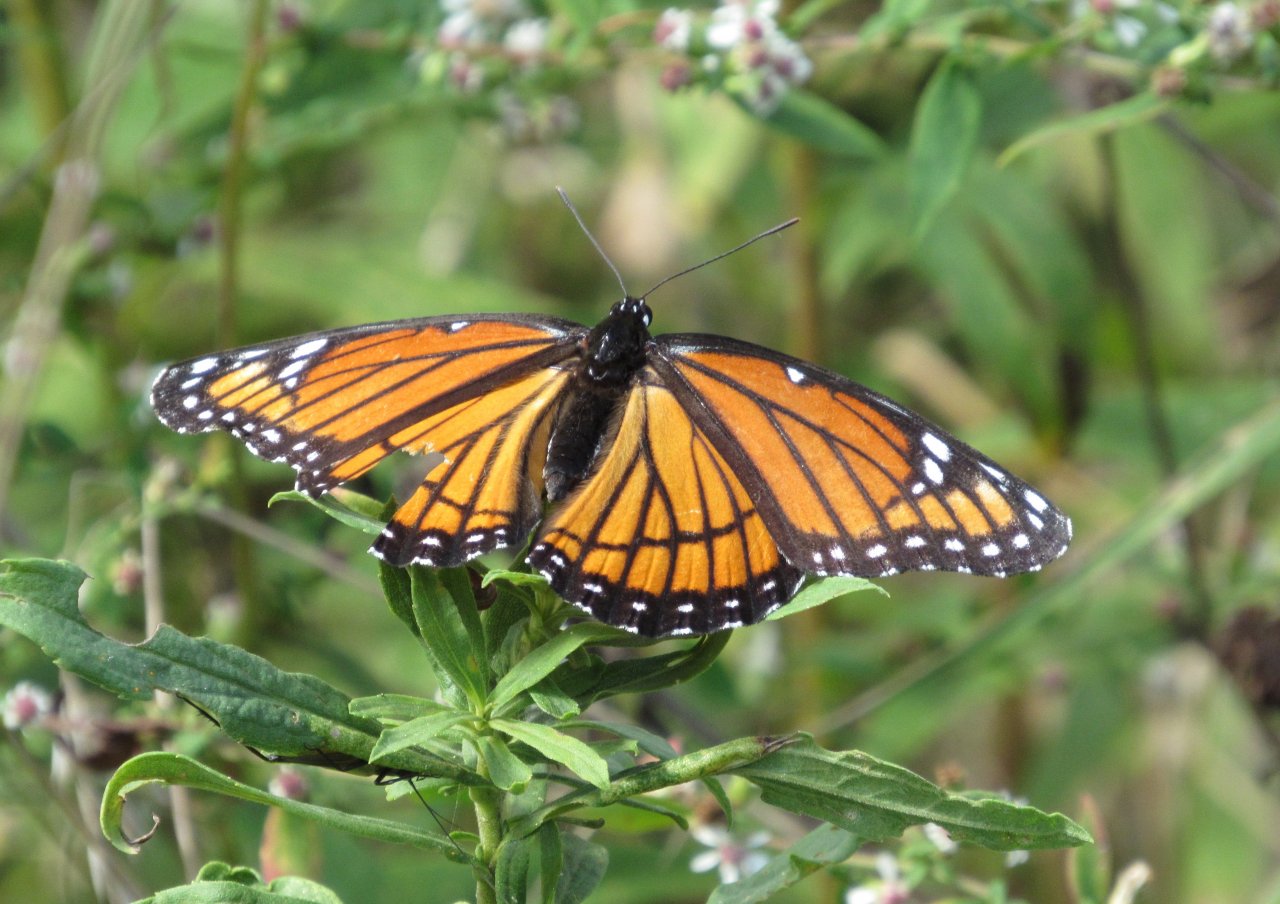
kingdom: Animalia
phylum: Arthropoda
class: Insecta
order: Lepidoptera
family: Nymphalidae
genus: Limenitis
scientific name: Limenitis archippus
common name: Viceroy
